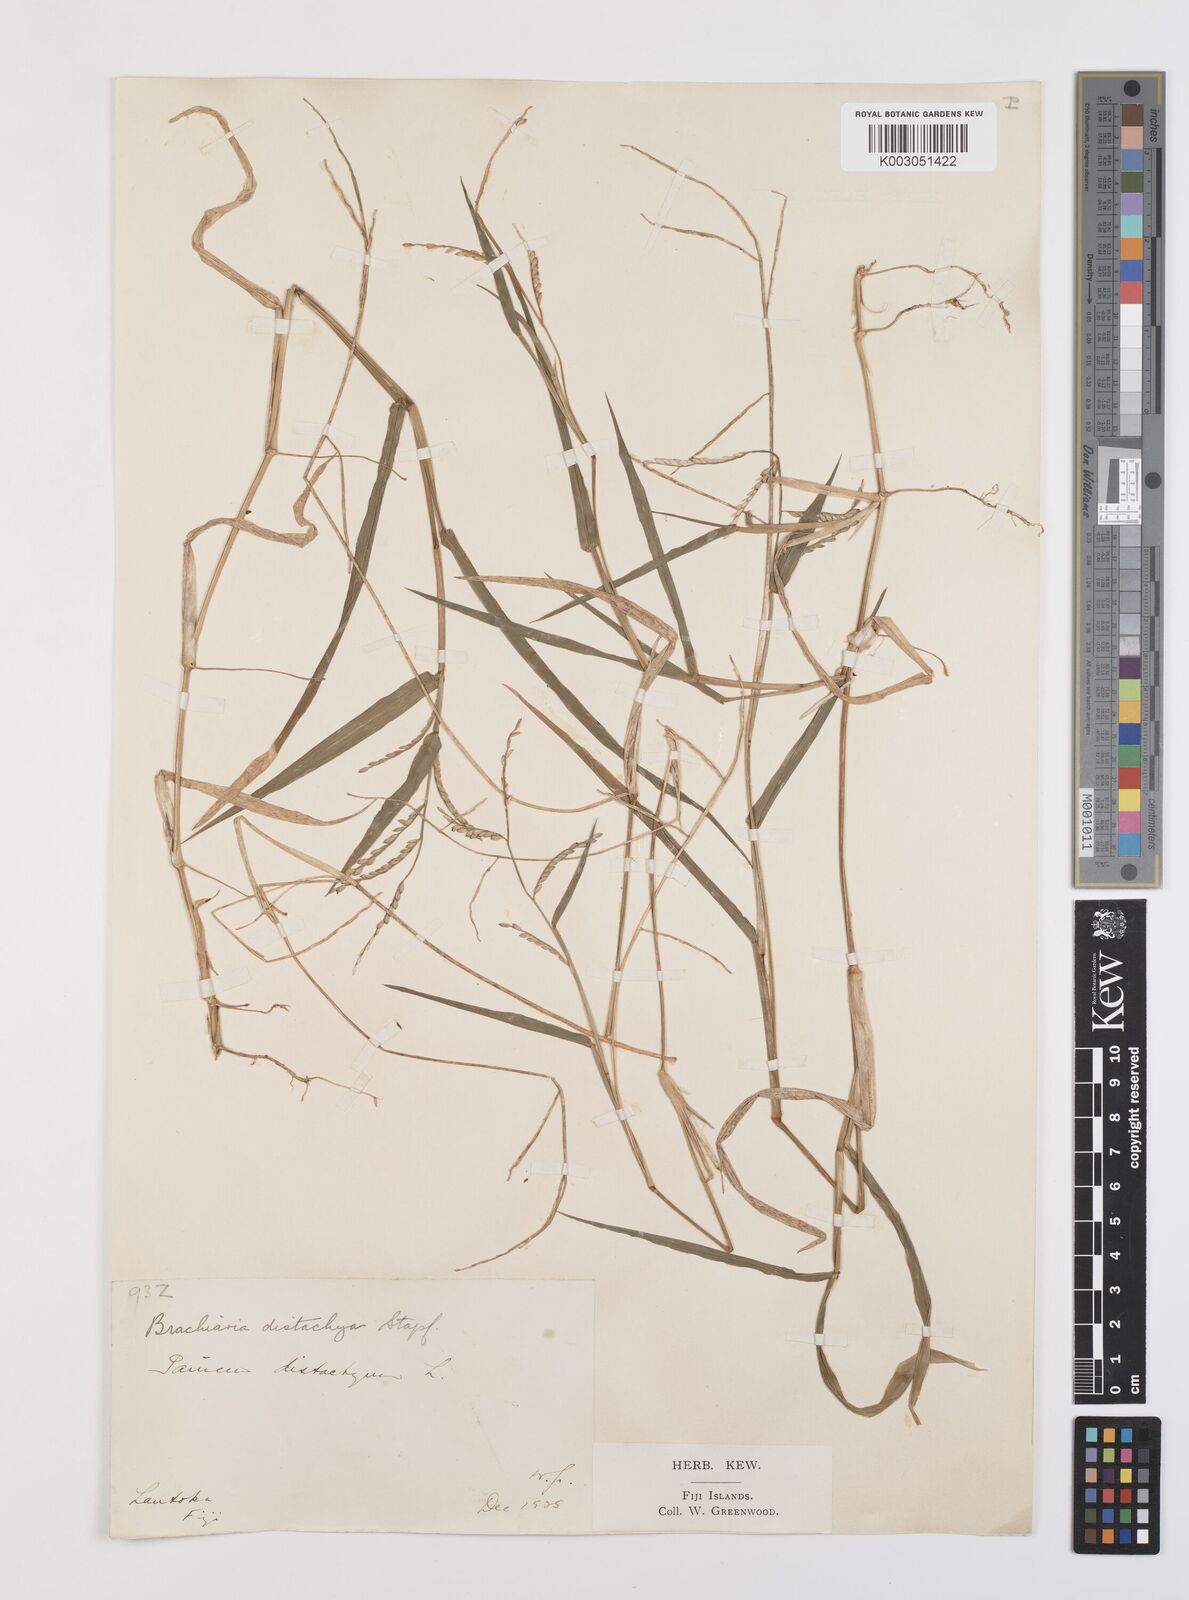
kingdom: Plantae
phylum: Tracheophyta
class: Liliopsida
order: Poales
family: Poaceae
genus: Urochloa
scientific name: Urochloa subquadripara
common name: Armgrass millet
